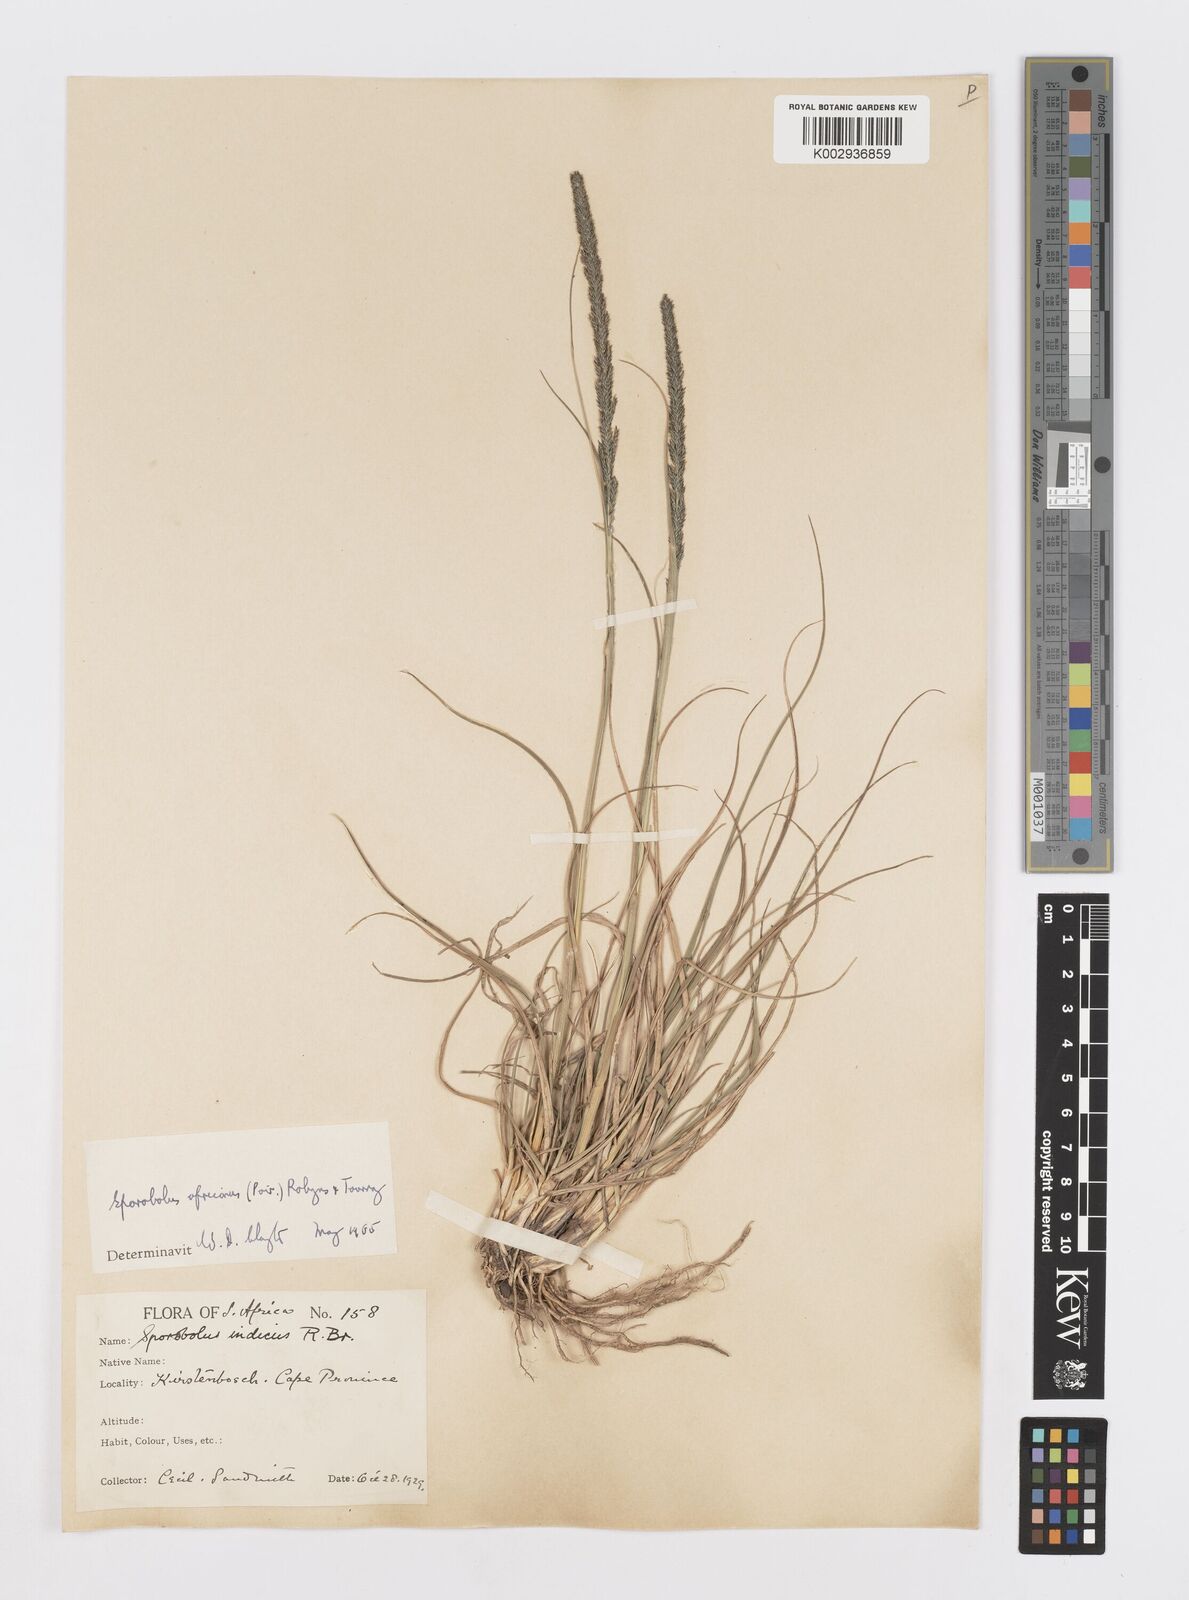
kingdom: Plantae
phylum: Tracheophyta
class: Liliopsida
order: Poales
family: Poaceae
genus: Sporobolus
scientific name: Sporobolus africanus
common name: African dropseed
